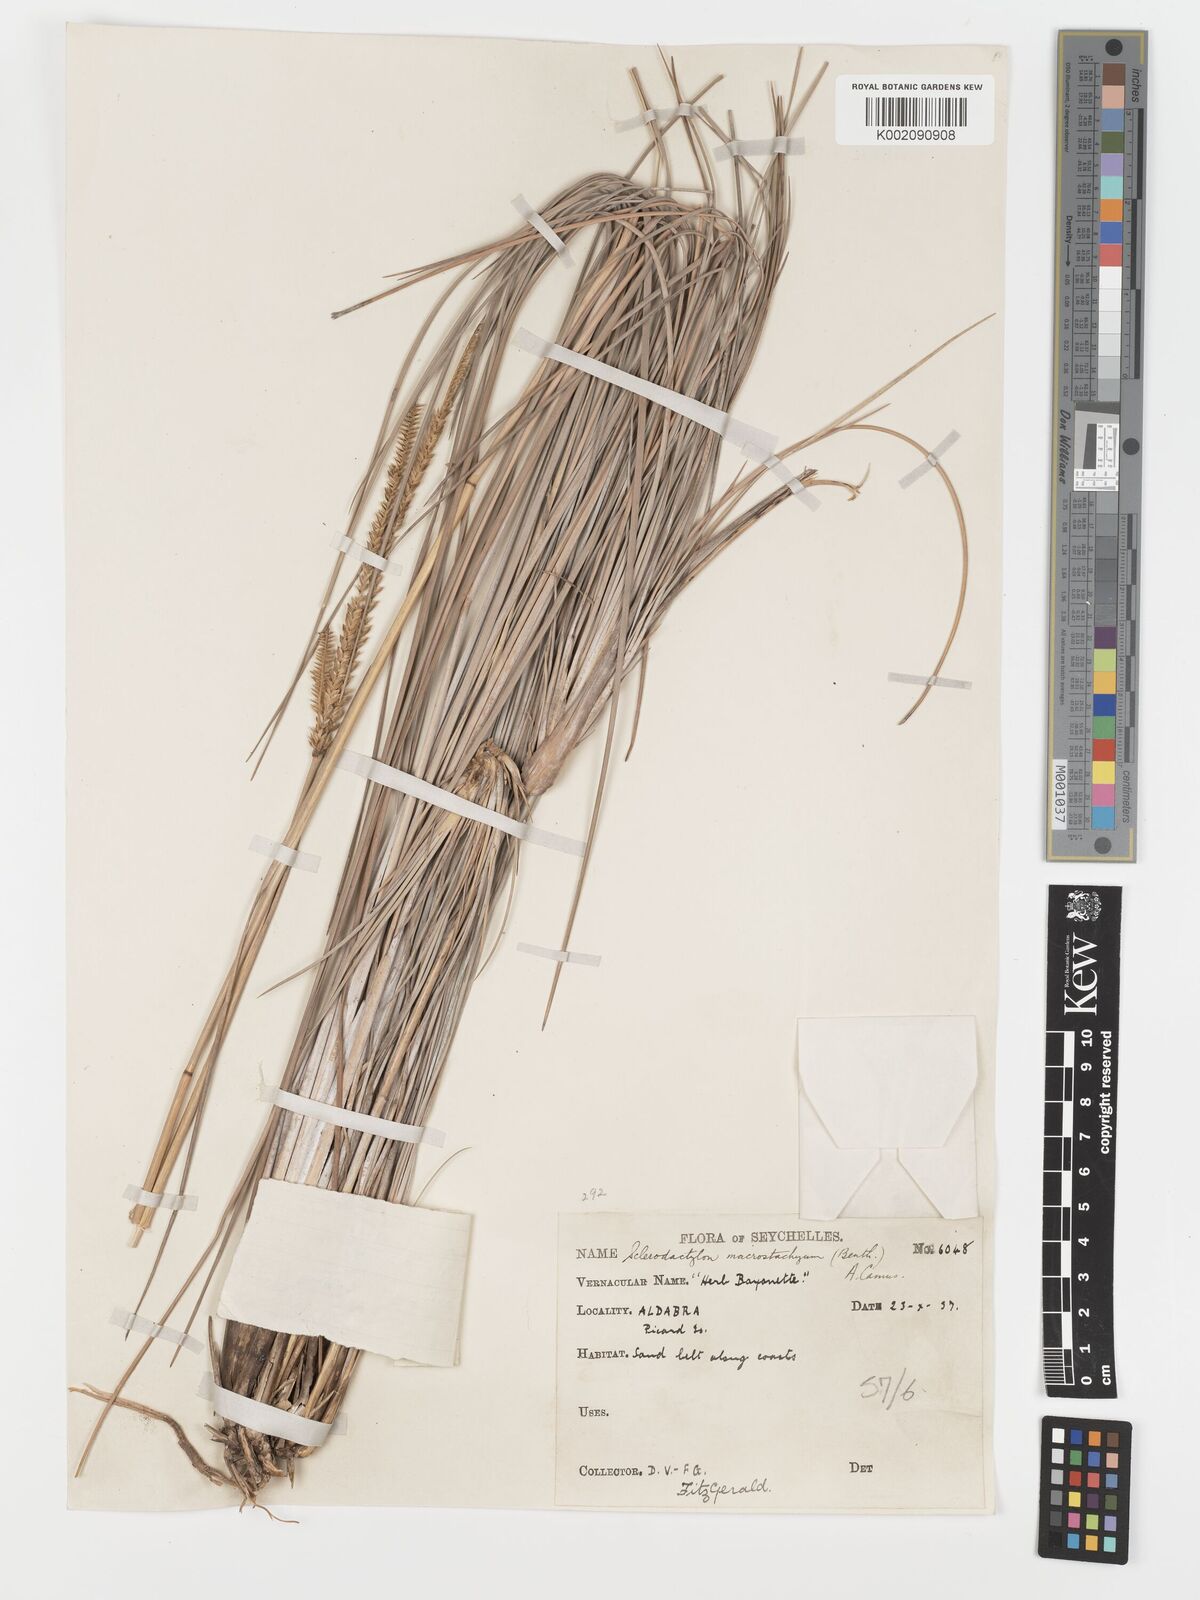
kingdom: Plantae
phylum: Tracheophyta
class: Liliopsida
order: Poales
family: Poaceae
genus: Sclerodactylon
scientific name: Sclerodactylon macrostachyum
